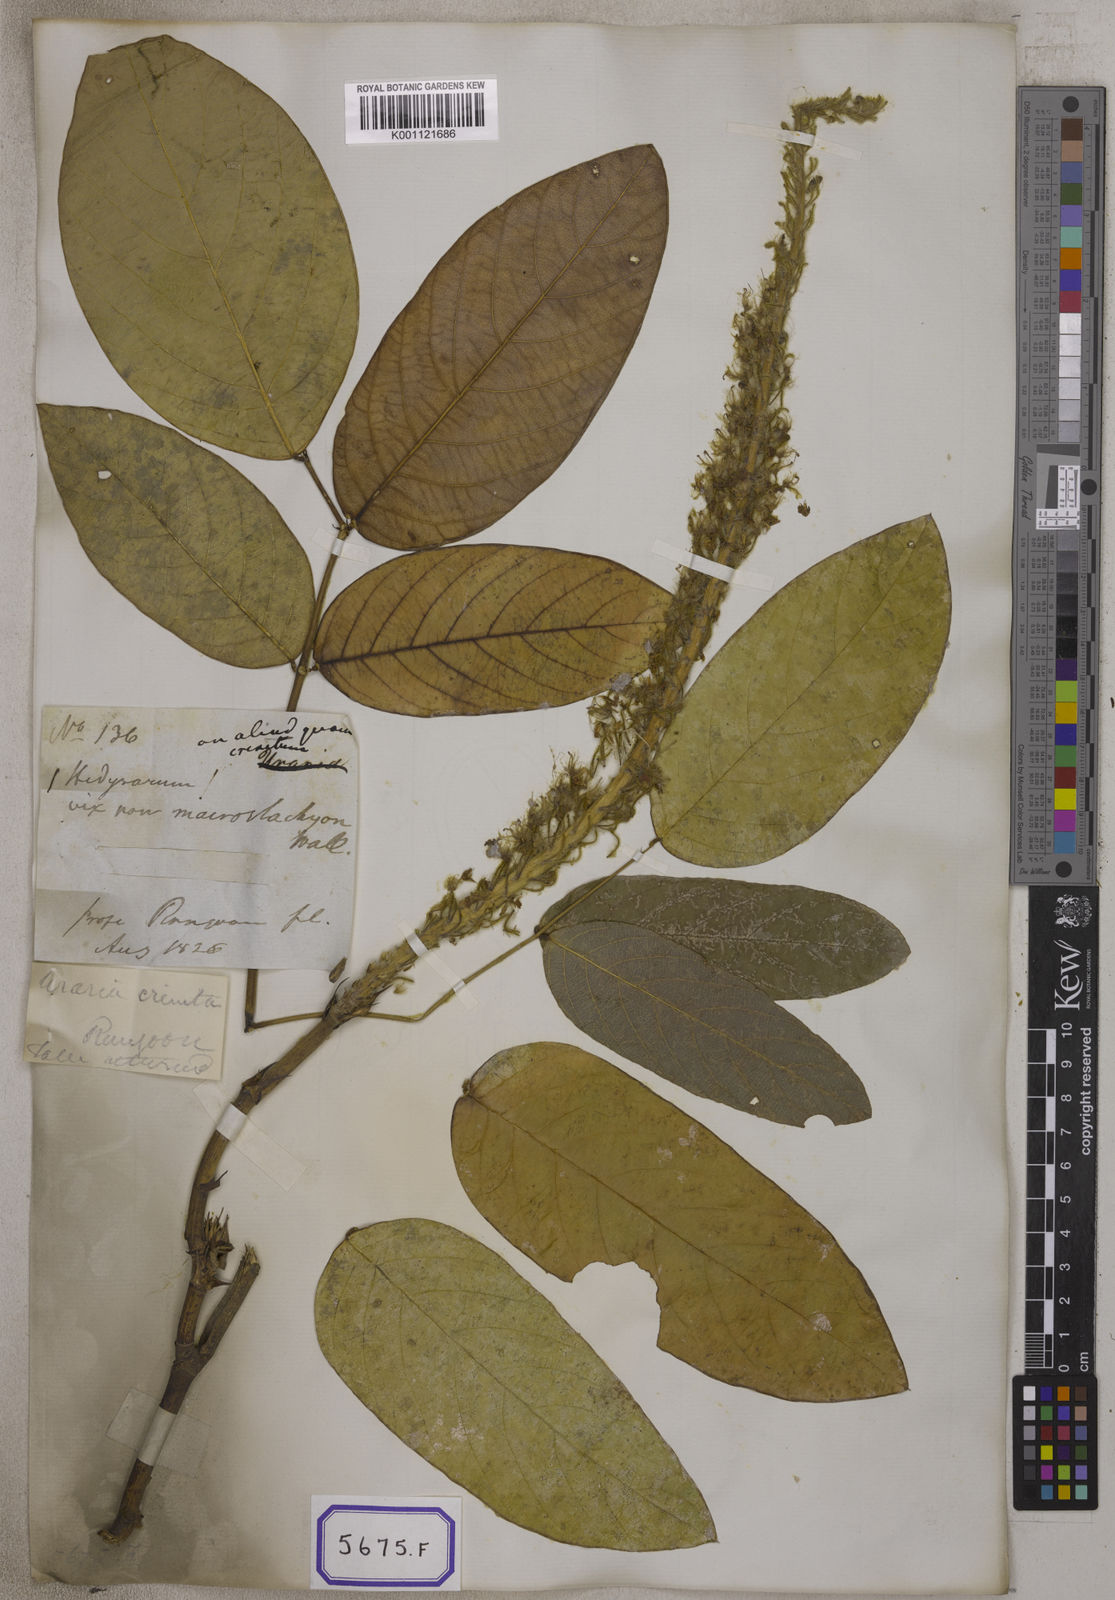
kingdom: Plantae
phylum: Tracheophyta
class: Magnoliopsida
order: Fabales
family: Fabaceae
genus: Uraria
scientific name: Uraria
